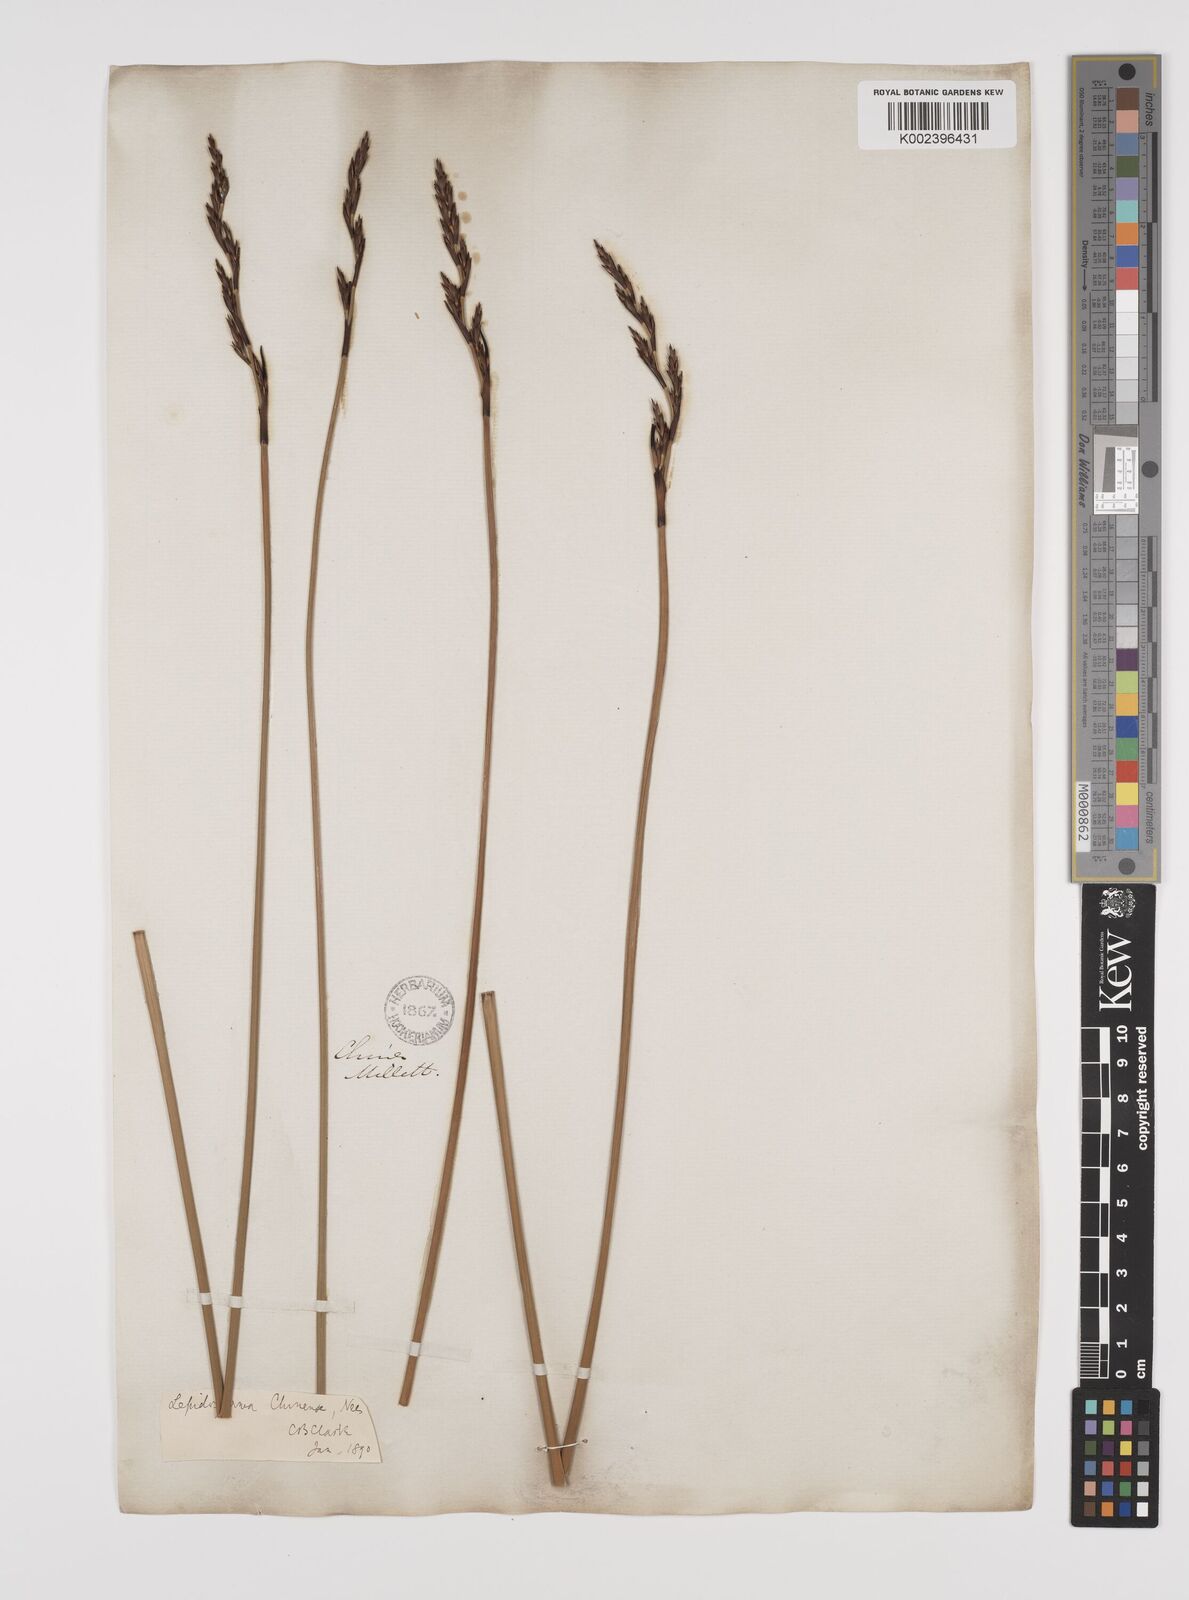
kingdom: Plantae
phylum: Tracheophyta
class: Liliopsida
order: Poales
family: Cyperaceae
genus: Lepidosperma
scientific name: Lepidosperma chinense
